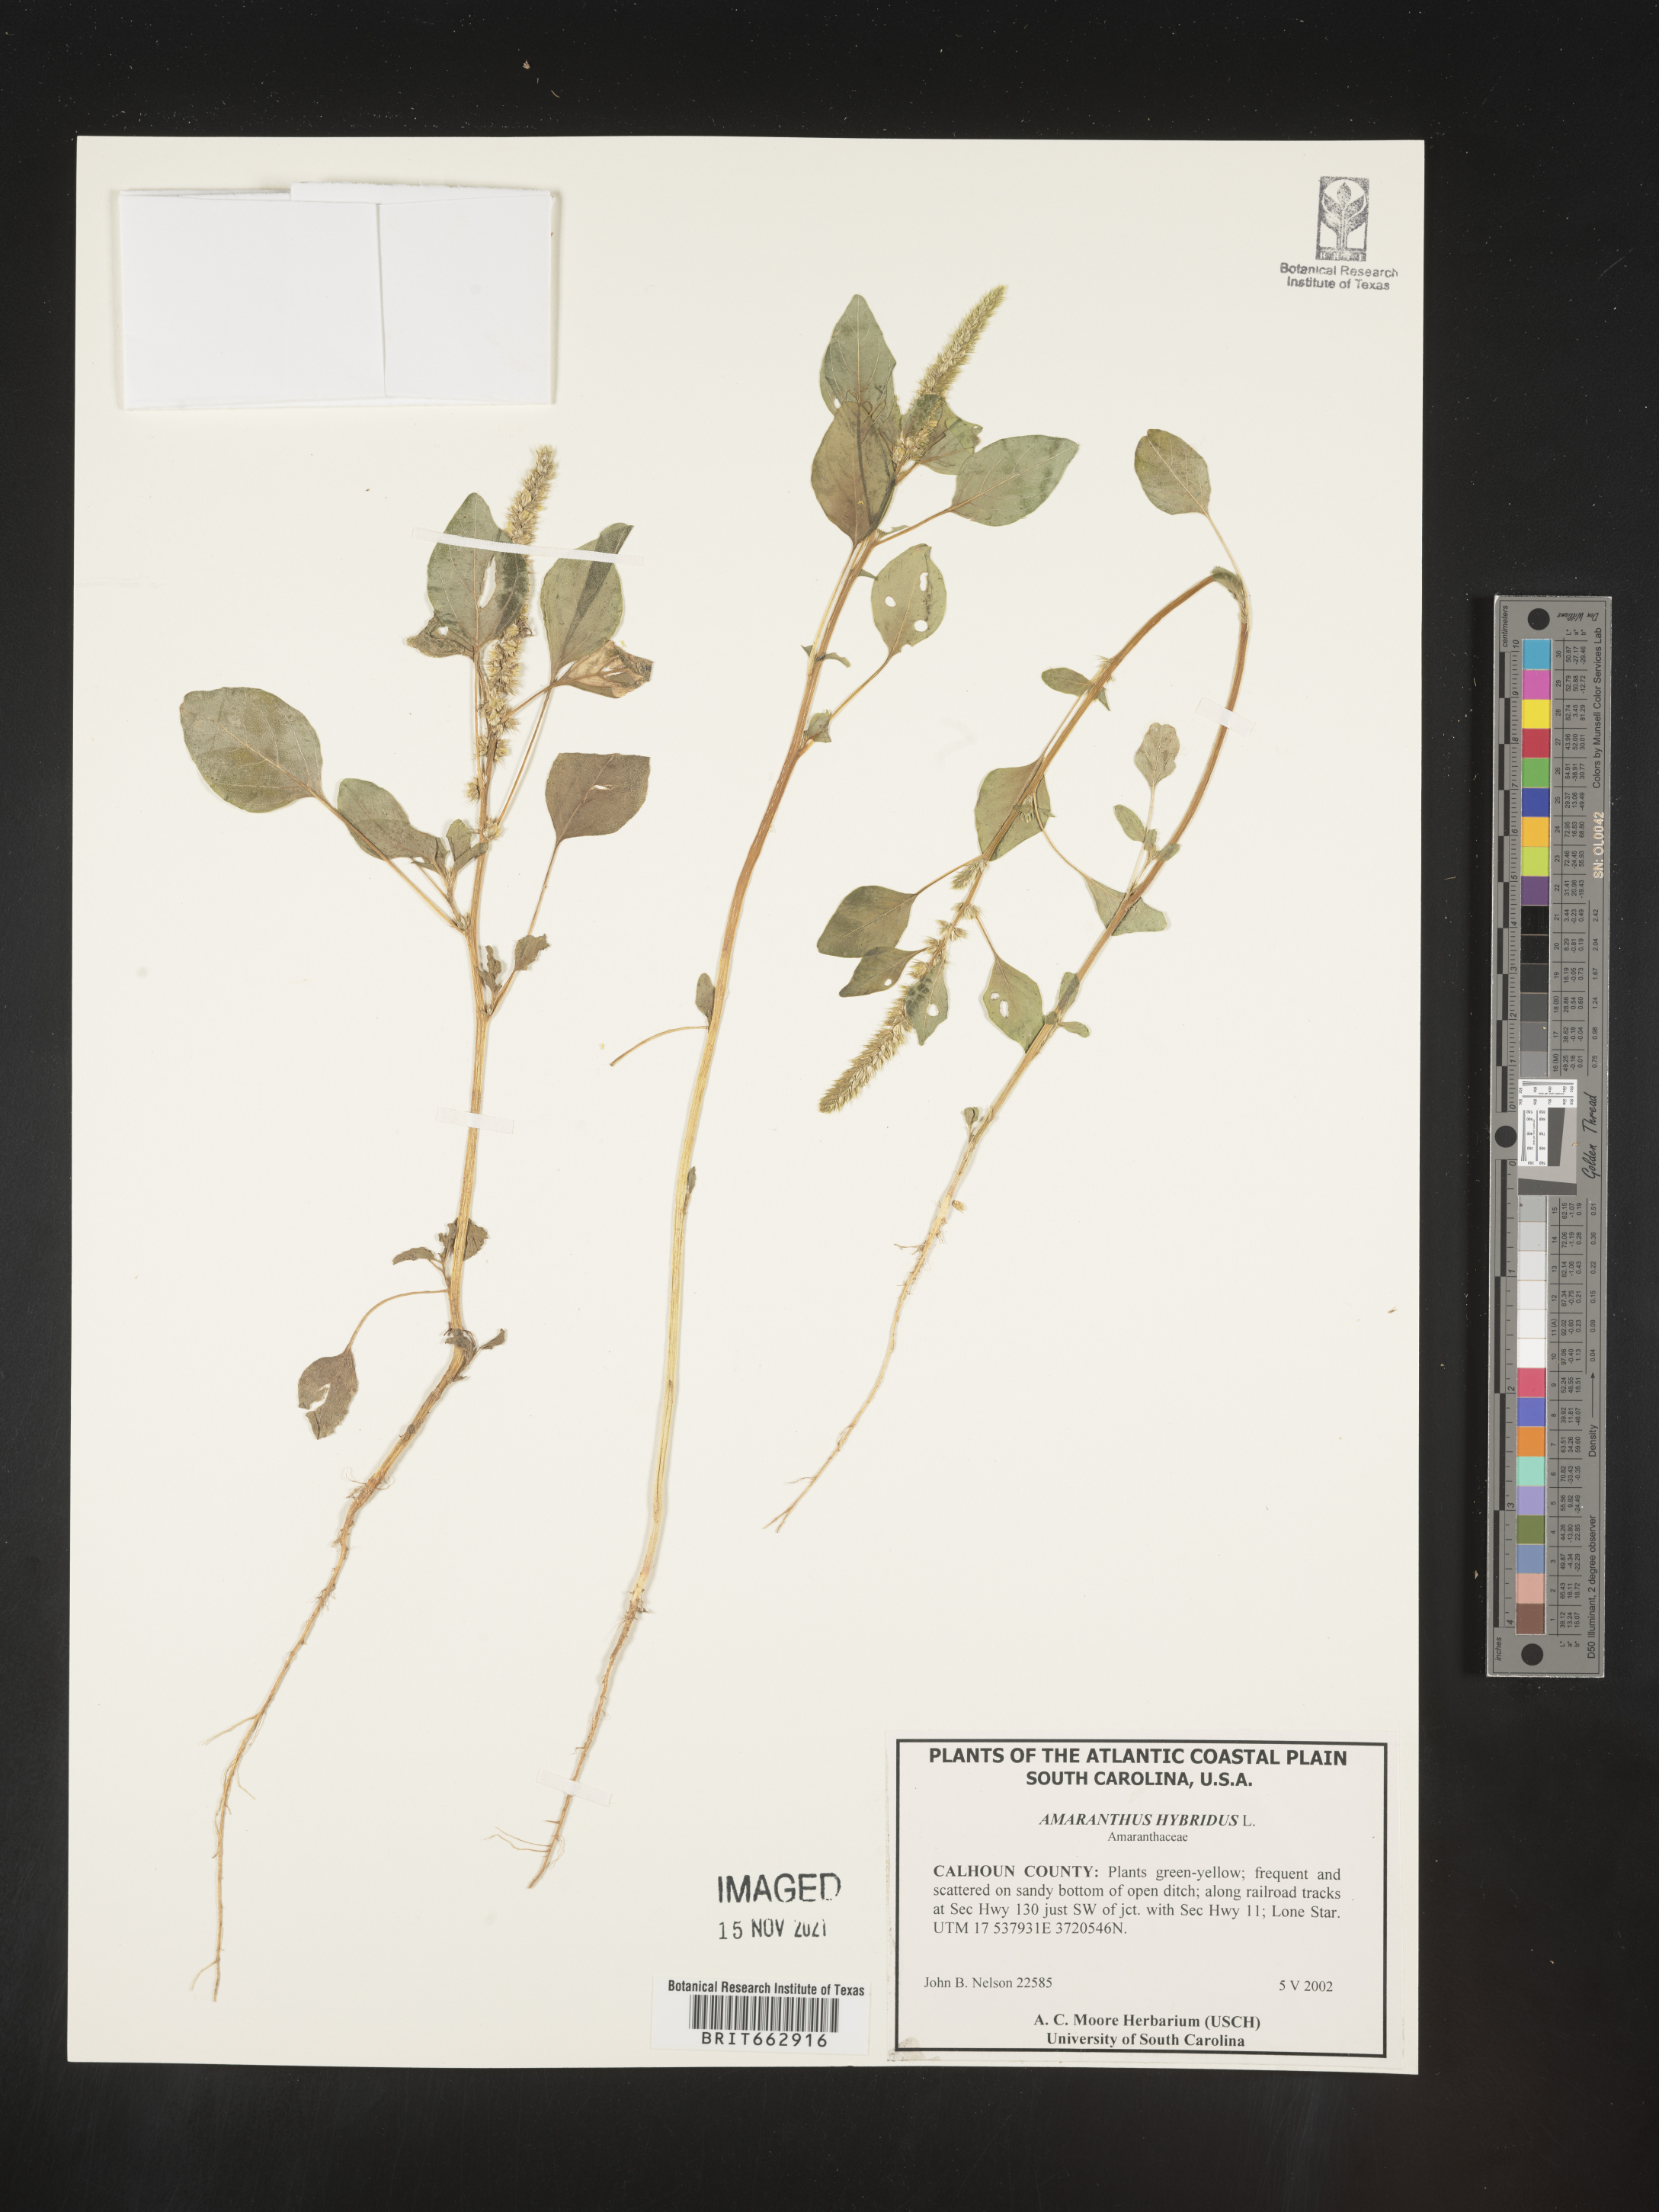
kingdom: Plantae
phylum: Tracheophyta
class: Magnoliopsida
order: Caryophyllales
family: Amaranthaceae
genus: Amaranthus
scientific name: Amaranthus hybridus
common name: Green amaranth
